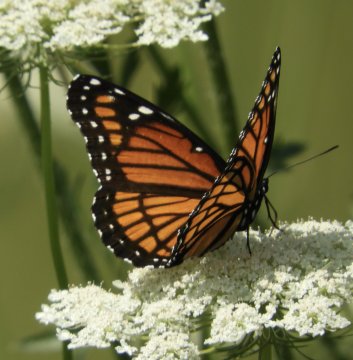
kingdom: Animalia
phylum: Arthropoda
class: Insecta
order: Lepidoptera
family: Nymphalidae
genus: Limenitis
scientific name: Limenitis archippus
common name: Viceroy
